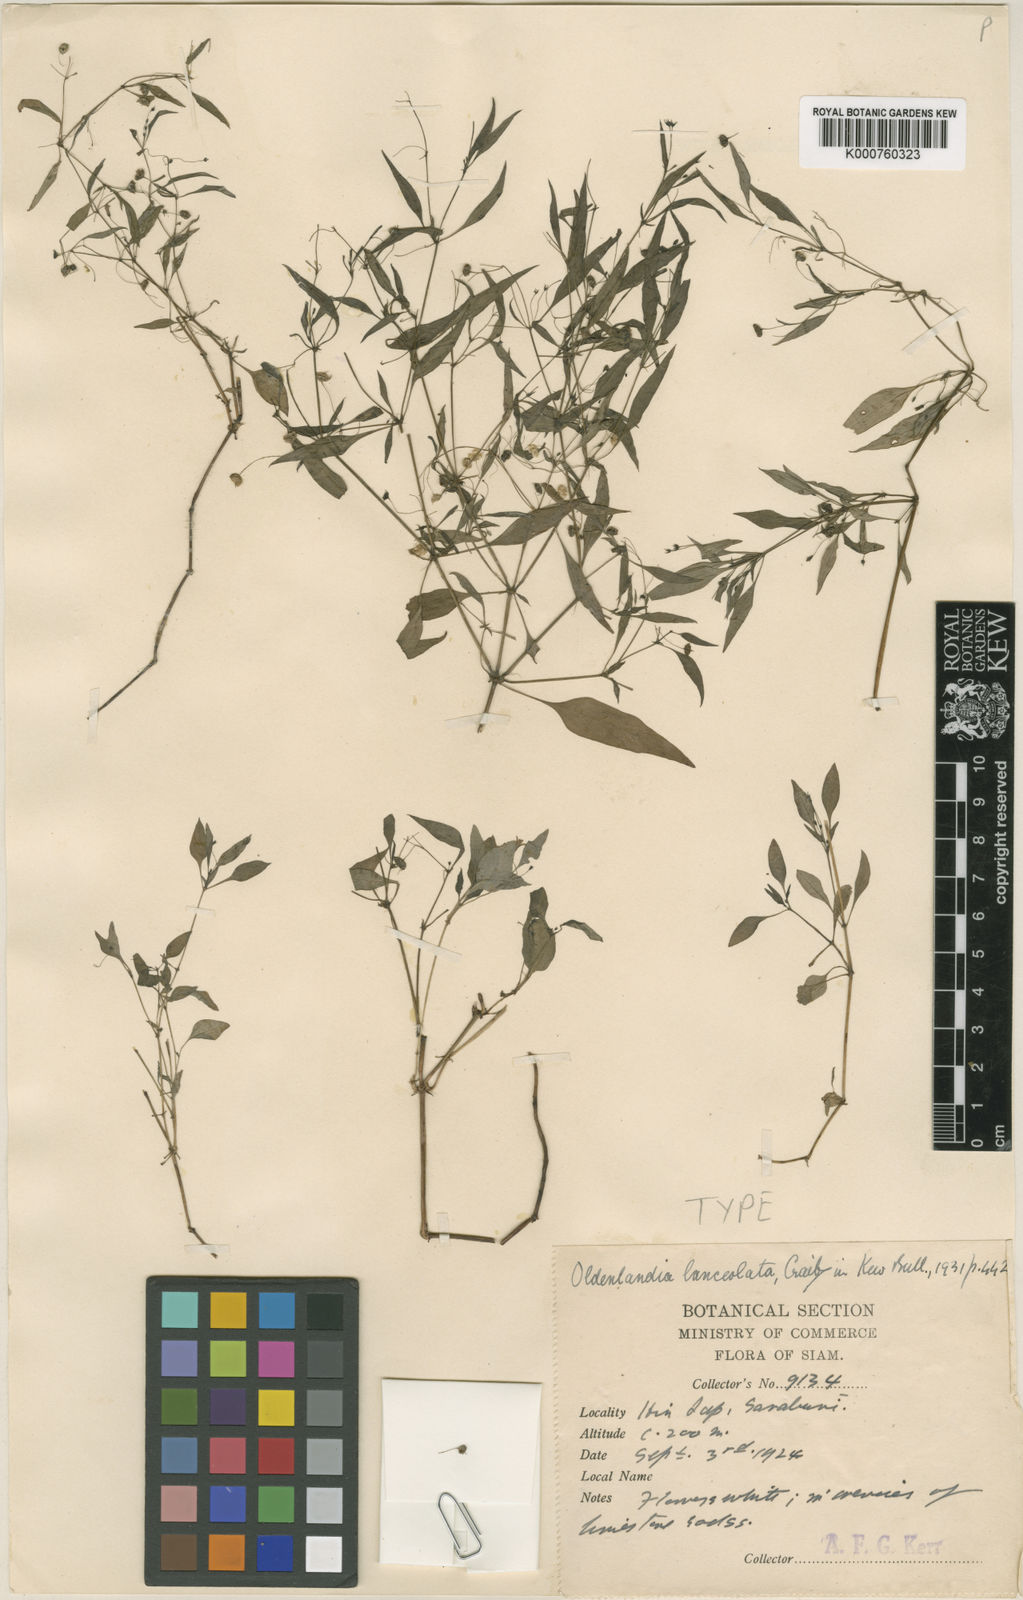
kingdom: Plantae
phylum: Tracheophyta
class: Magnoliopsida
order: Gentianales
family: Rubiaceae
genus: Houstonia
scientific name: Houstonia purpurea
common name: Summer bluet
